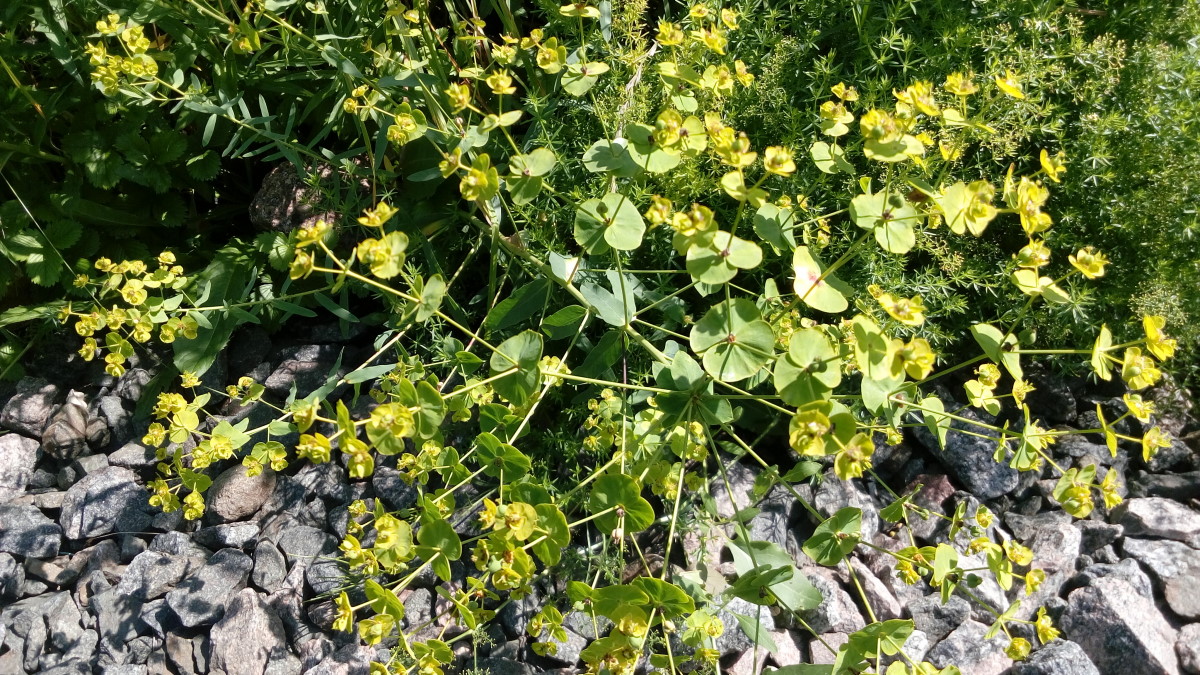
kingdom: Plantae
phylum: Tracheophyta
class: Magnoliopsida
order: Malpighiales
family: Euphorbiaceae
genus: Euphorbia
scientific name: Euphorbia
